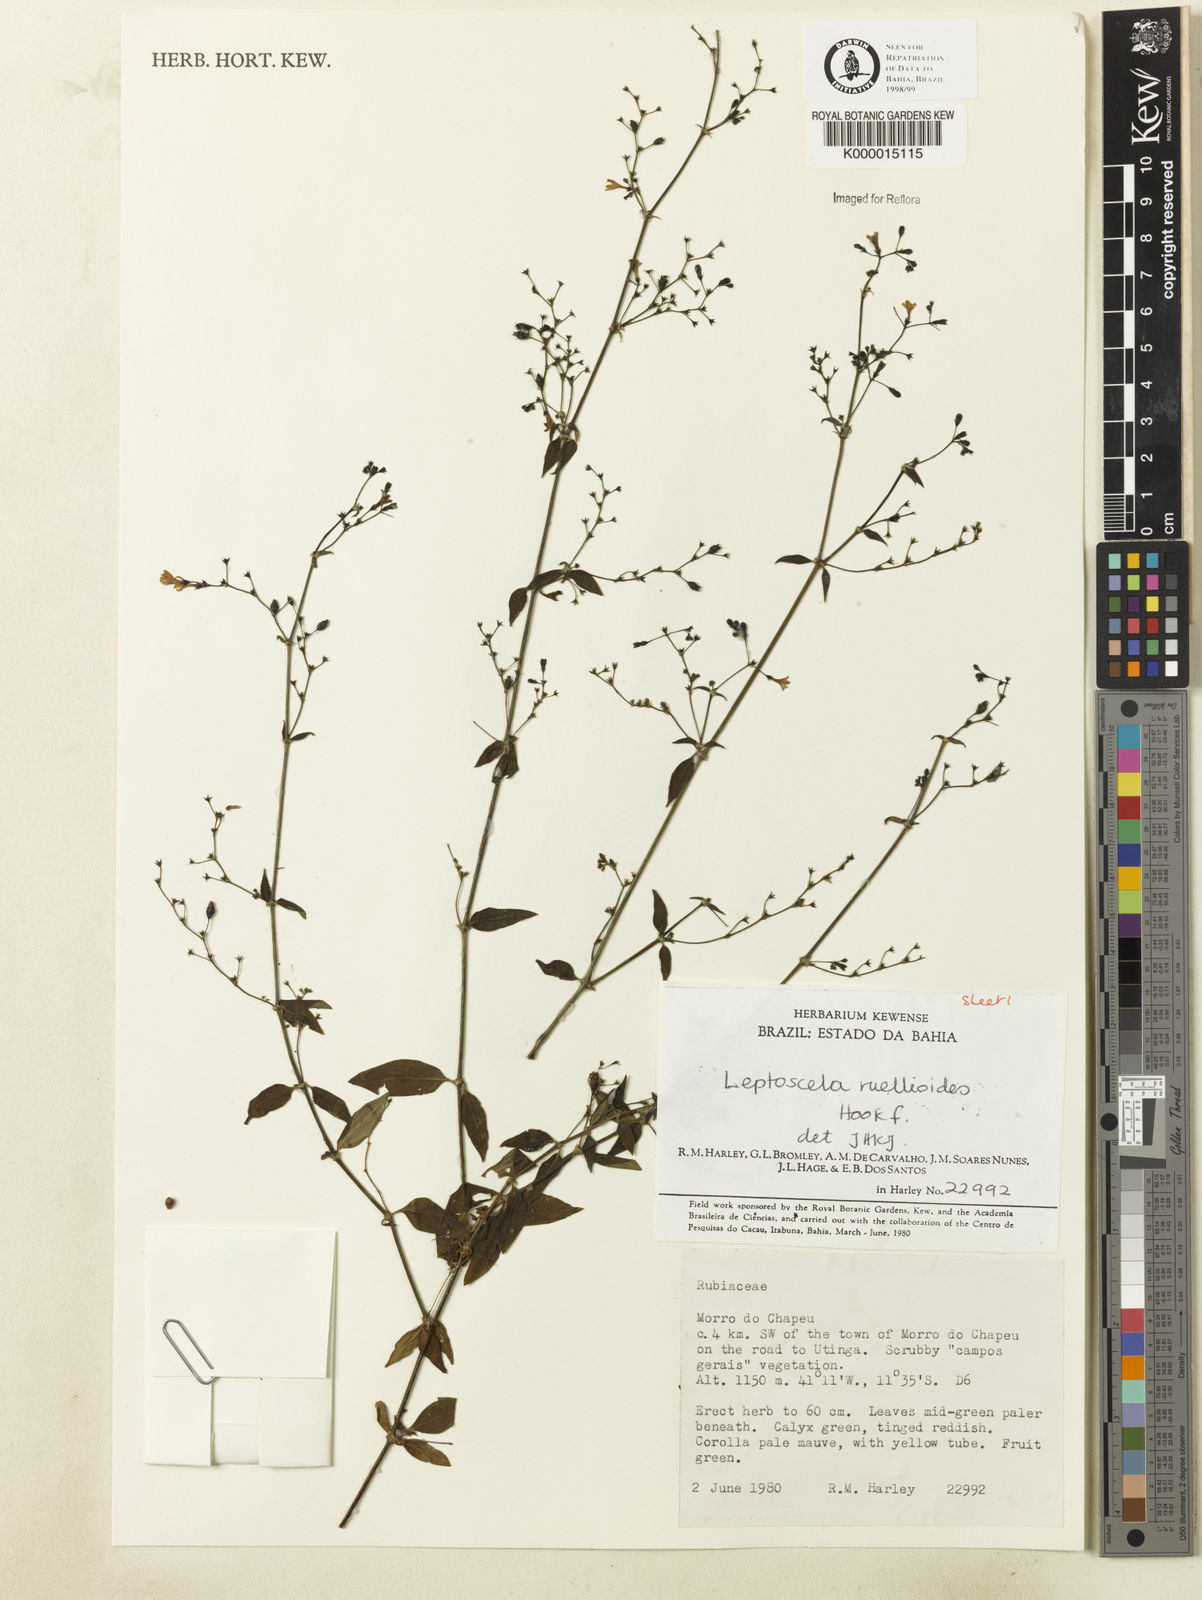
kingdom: Plantae
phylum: Tracheophyta
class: Magnoliopsida
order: Gentianales
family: Rubiaceae
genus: Leptoscela
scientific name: Leptoscela
